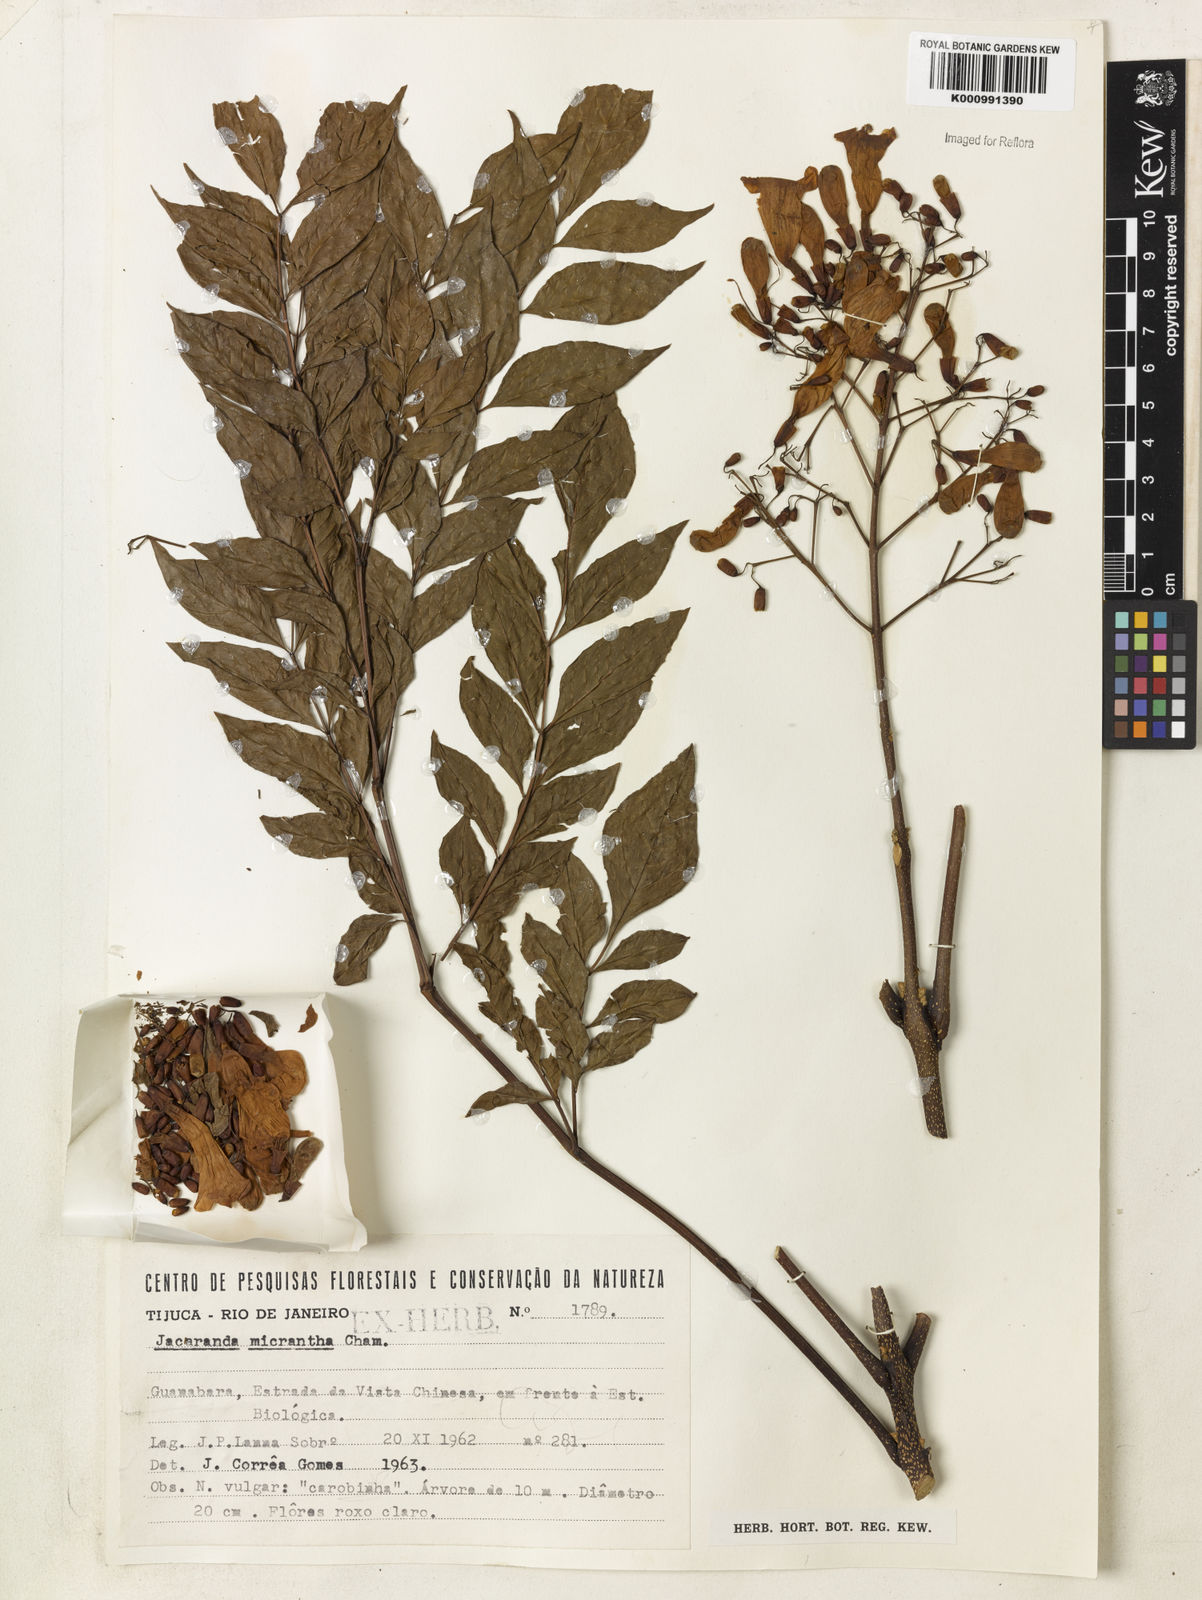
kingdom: Plantae
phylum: Tracheophyta
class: Magnoliopsida
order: Lamiales
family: Bignoniaceae
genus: Jacaranda
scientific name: Jacaranda micrantha
